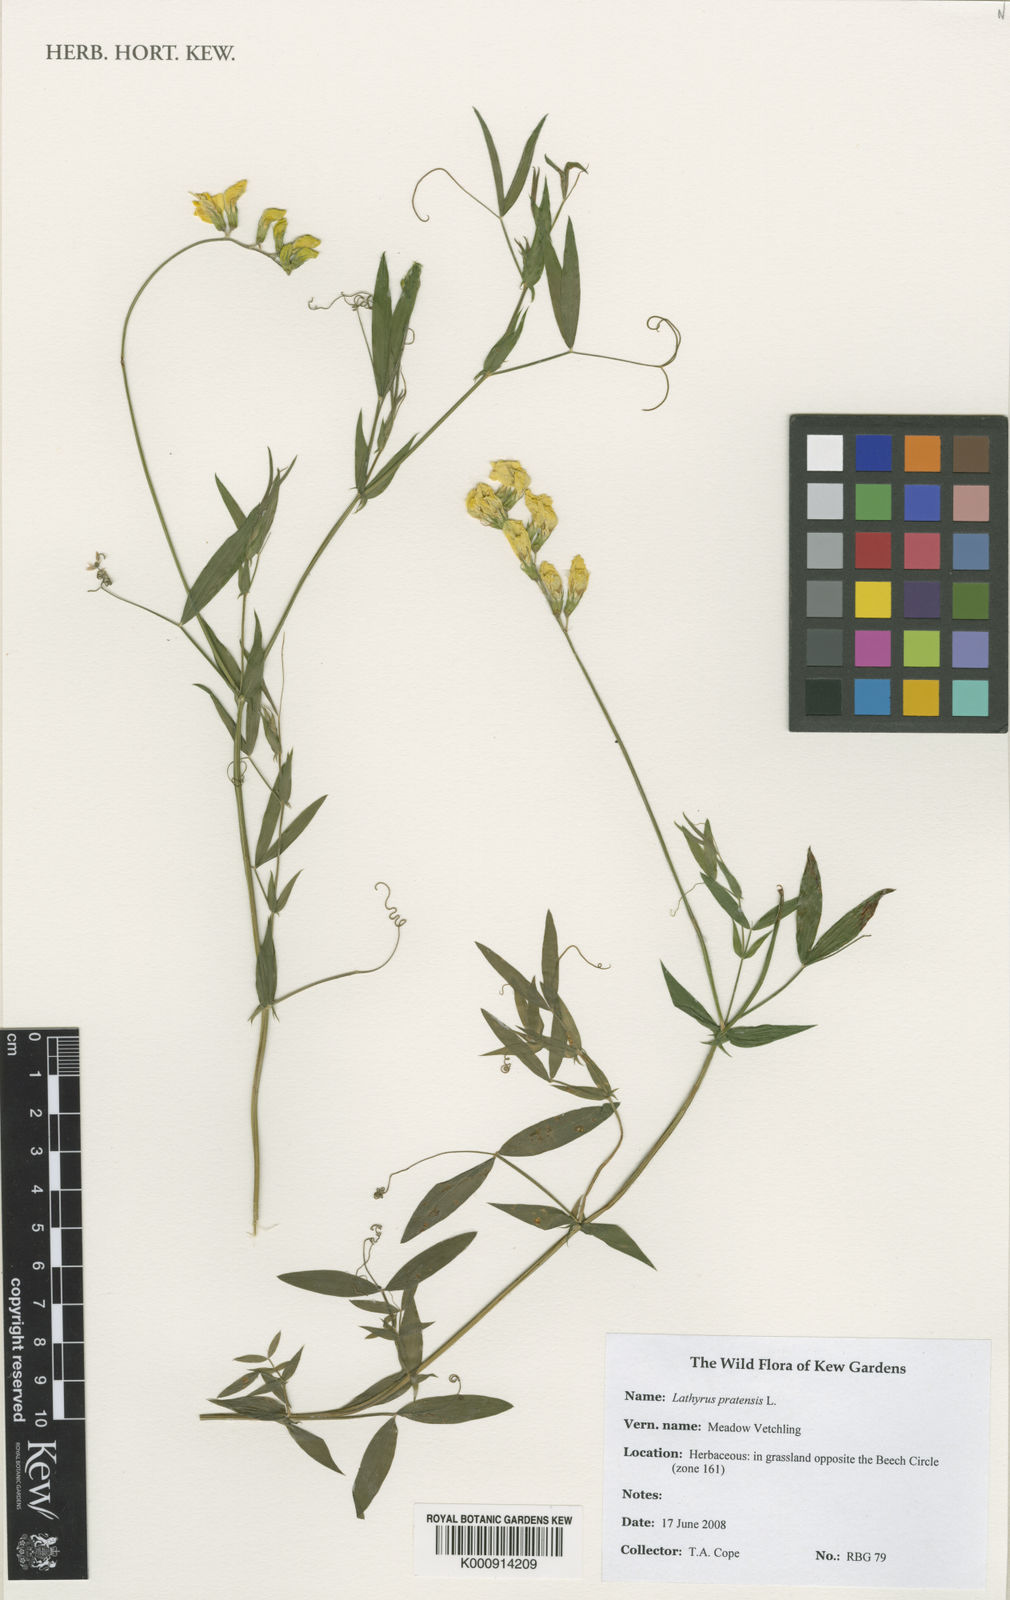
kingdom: Plantae
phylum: Tracheophyta
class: Magnoliopsida
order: Fabales
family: Fabaceae
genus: Lathyrus
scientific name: Lathyrus pratensis
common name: Meadow vetchling
